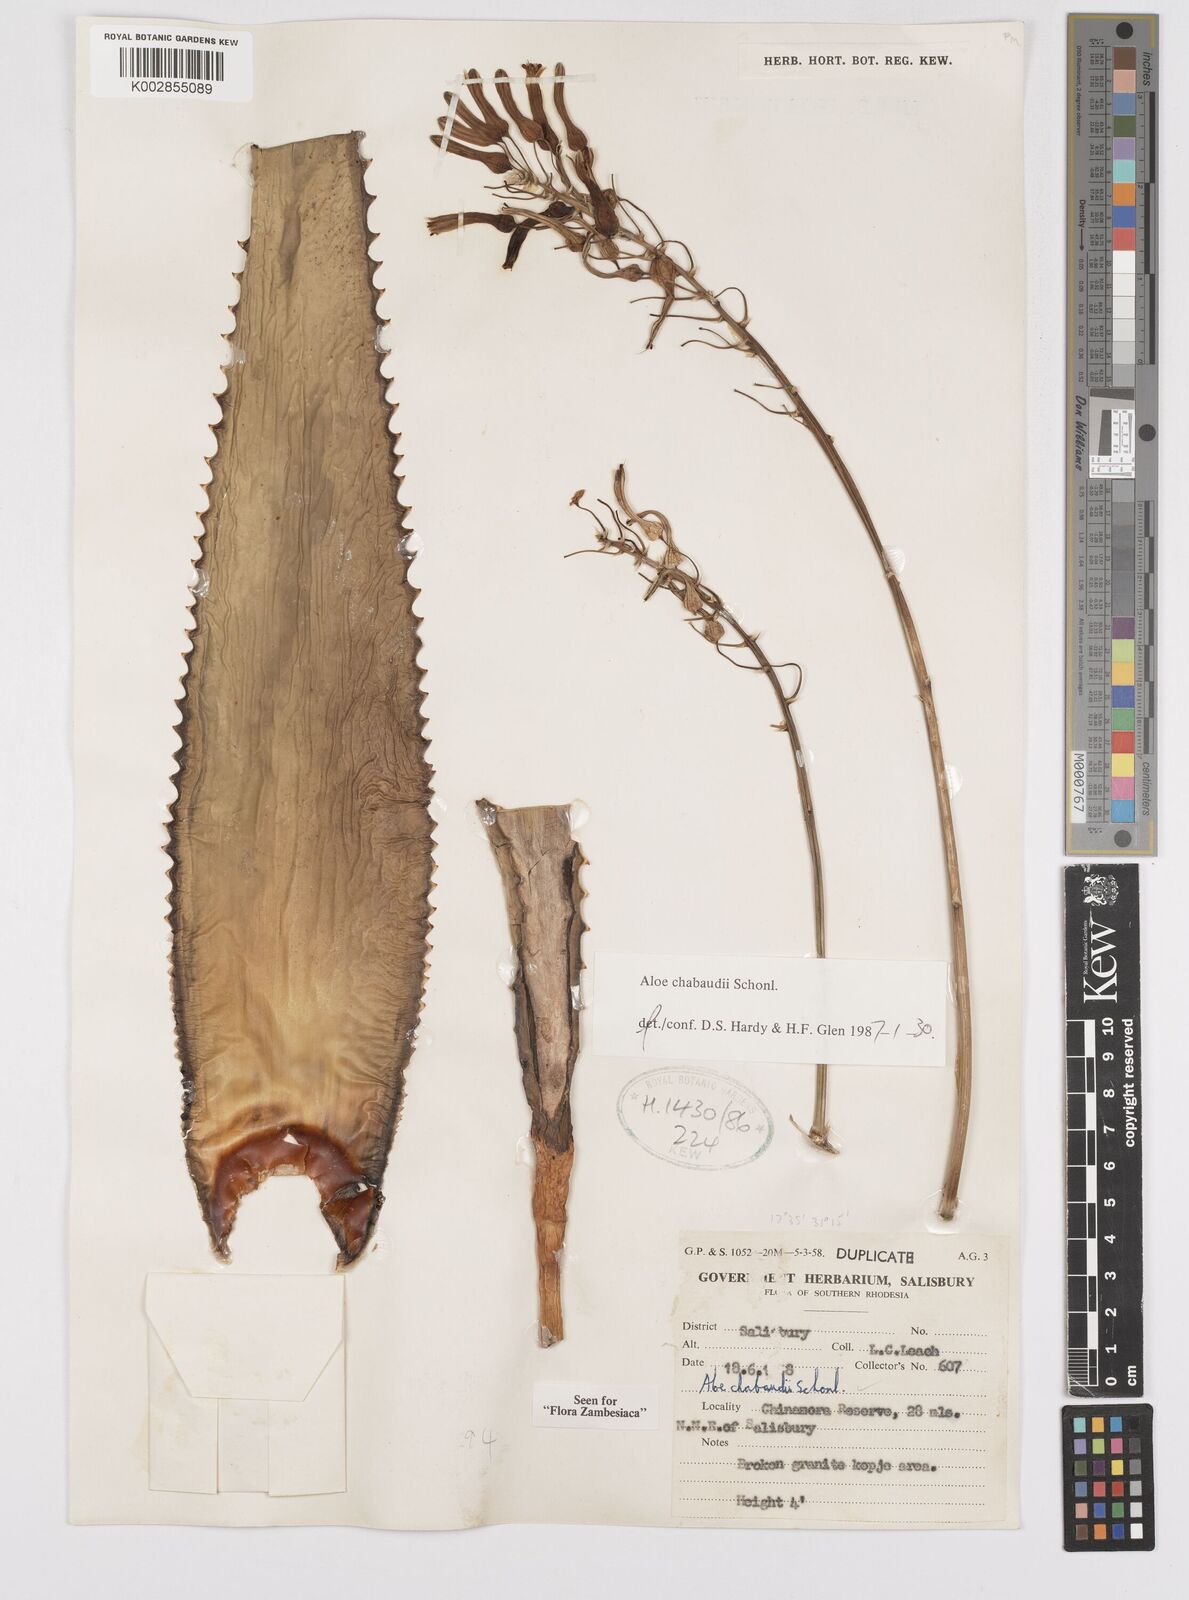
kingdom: Plantae
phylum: Tracheophyta
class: Liliopsida
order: Asparagales
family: Asphodelaceae
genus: Aloe
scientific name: Aloe chabaudii
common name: Chabaud's aloe
